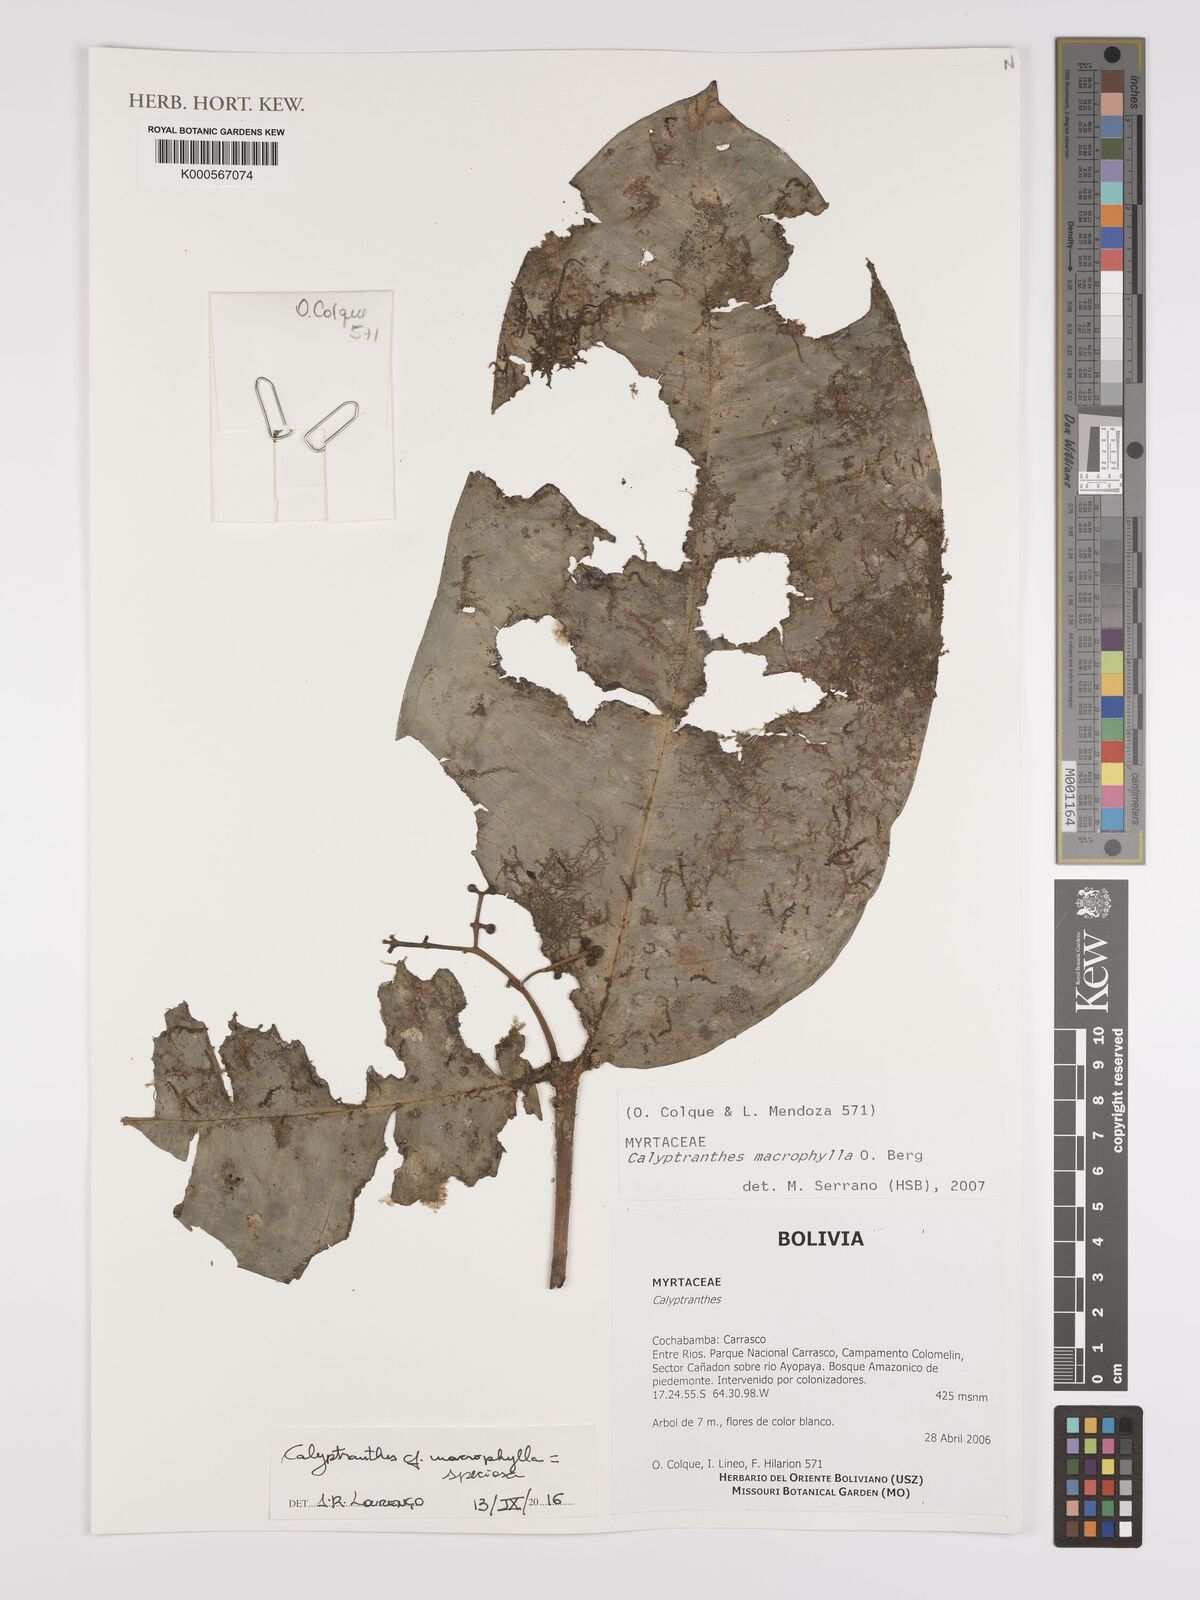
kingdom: Plantae
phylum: Tracheophyta
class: Magnoliopsida
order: Myrtales
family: Myrtaceae
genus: Myrcia
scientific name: Myrcia neomacrophylla
